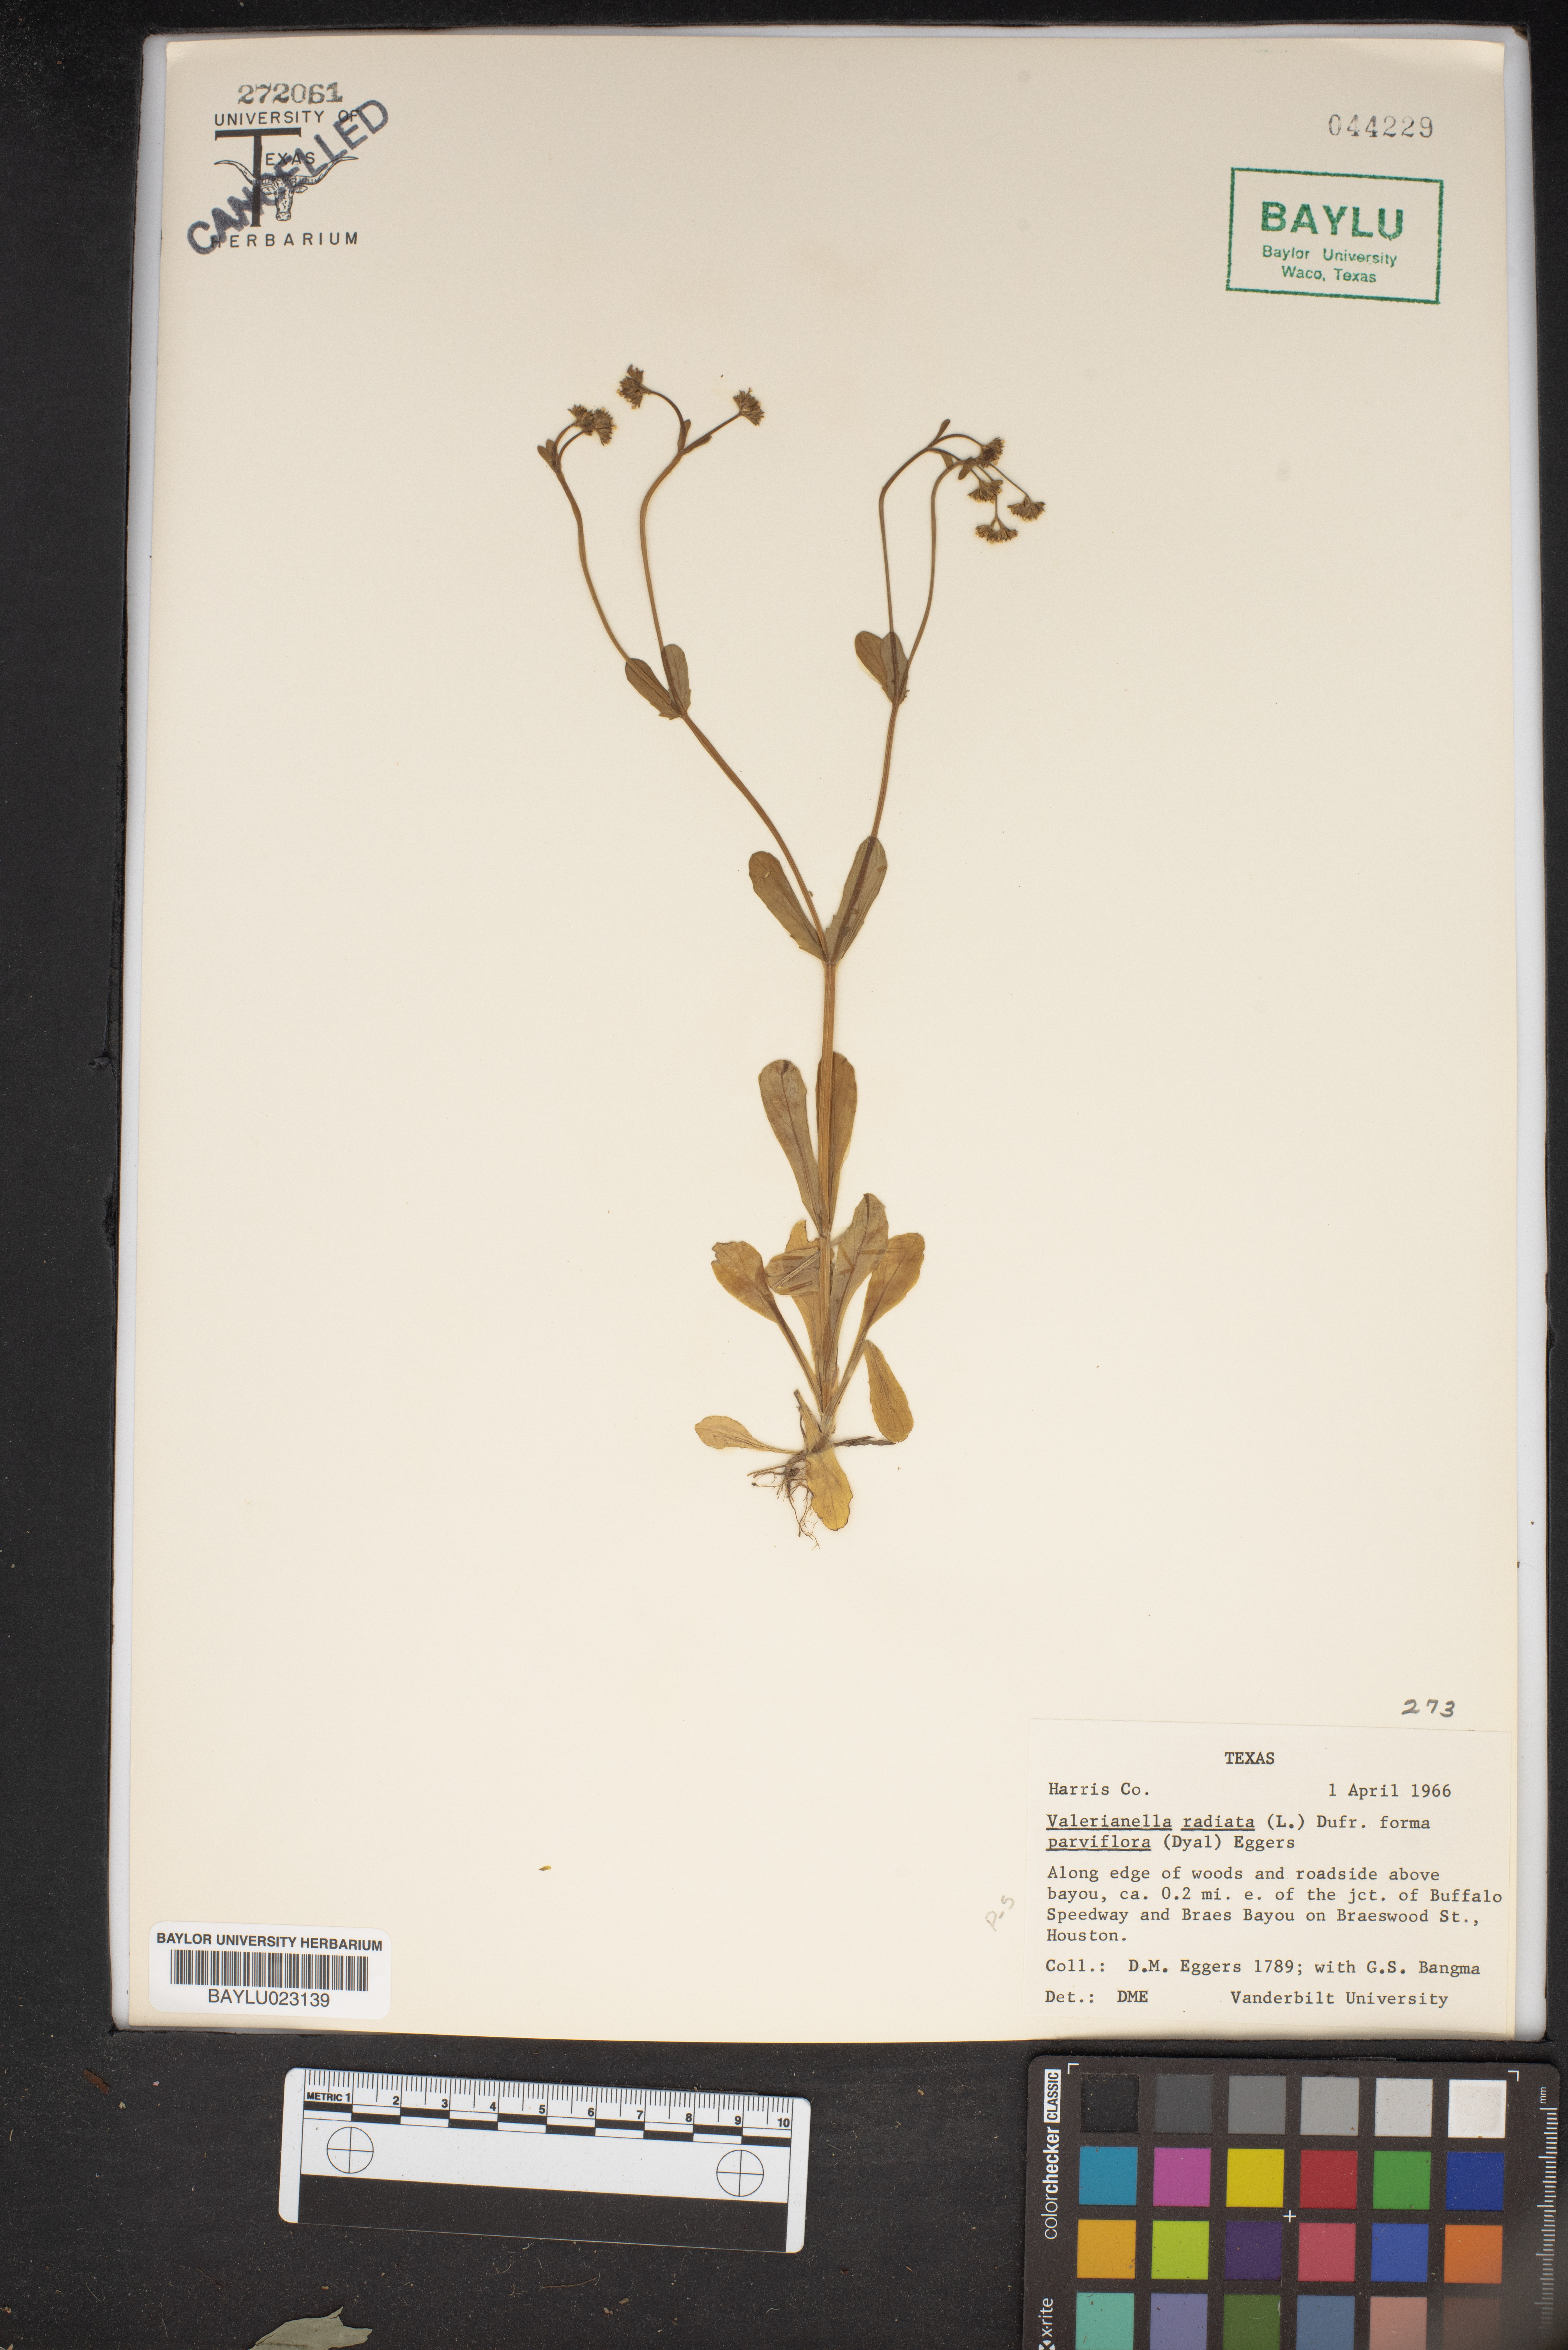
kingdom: Plantae
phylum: Tracheophyta
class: Magnoliopsida
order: Dipsacales
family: Caprifoliaceae
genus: Valerianella
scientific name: Valerianella radiata
